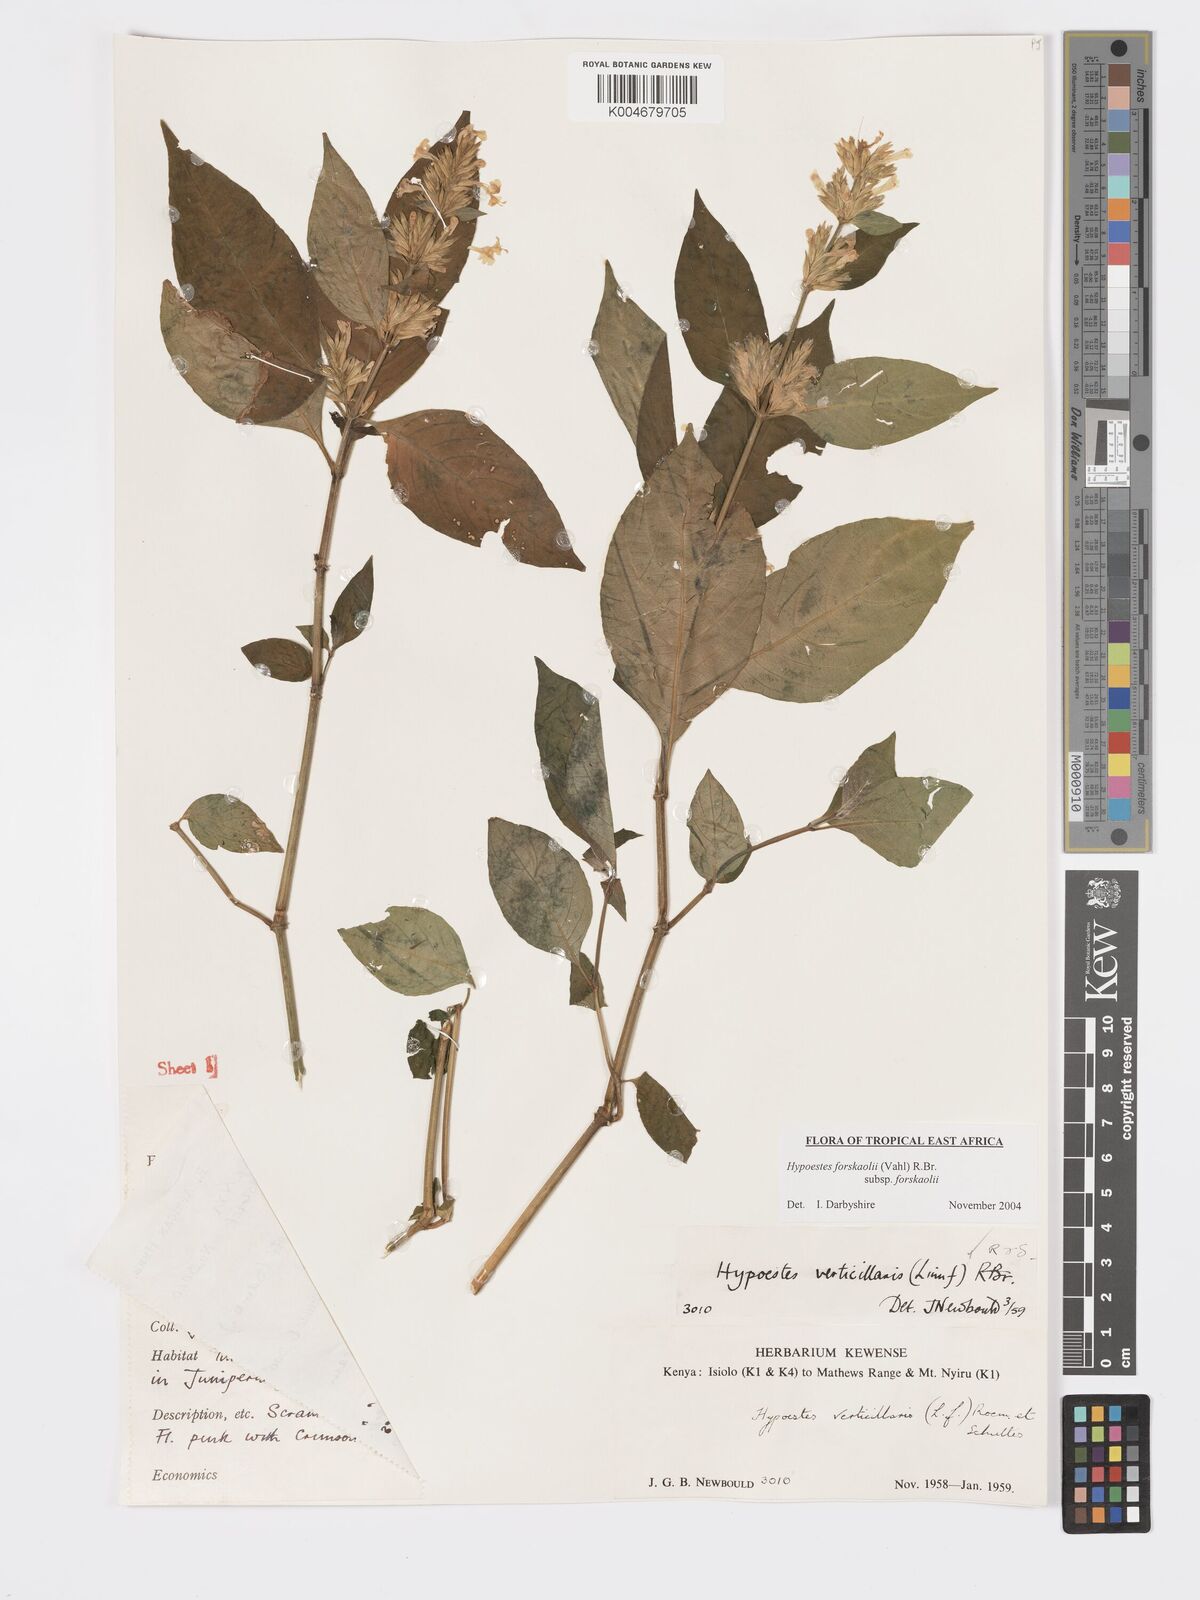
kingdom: Plantae
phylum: Tracheophyta
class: Magnoliopsida
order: Lamiales
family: Acanthaceae
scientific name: Acanthaceae
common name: Acanthaceae
